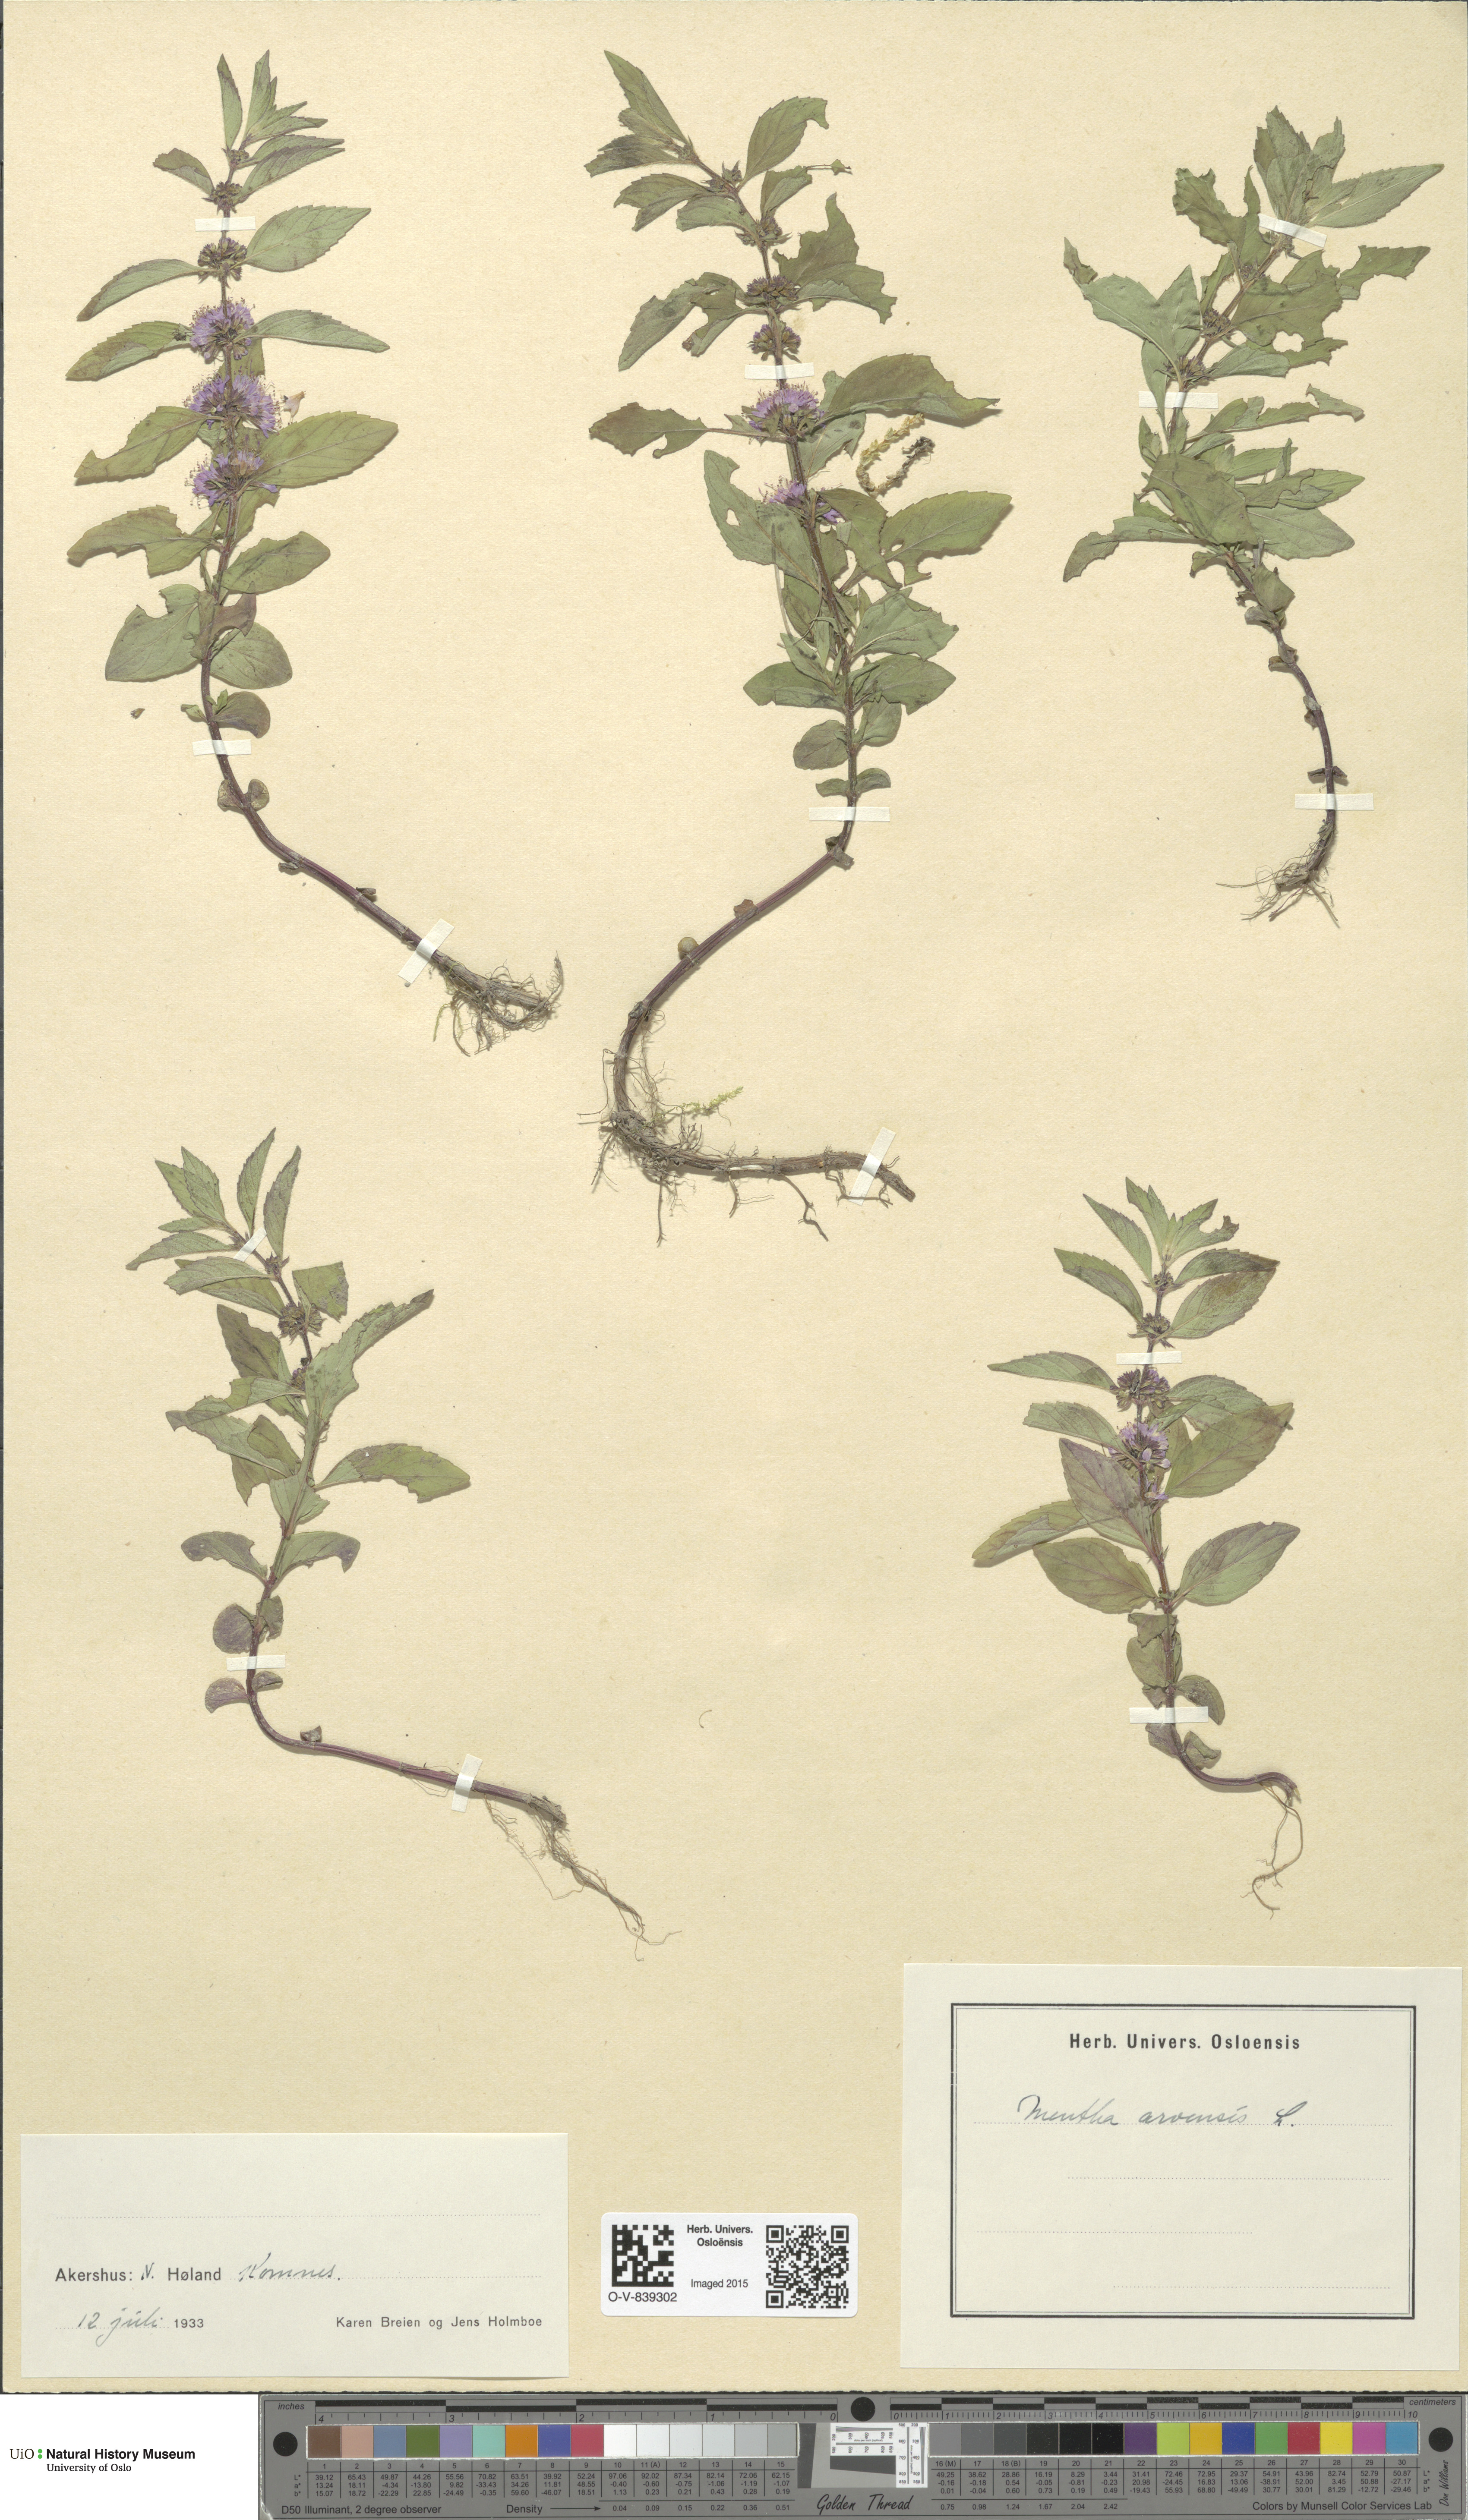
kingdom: Plantae
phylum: Tracheophyta
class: Magnoliopsida
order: Lamiales
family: Lamiaceae
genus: Mentha
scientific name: Mentha arvensis
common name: Corn mint
